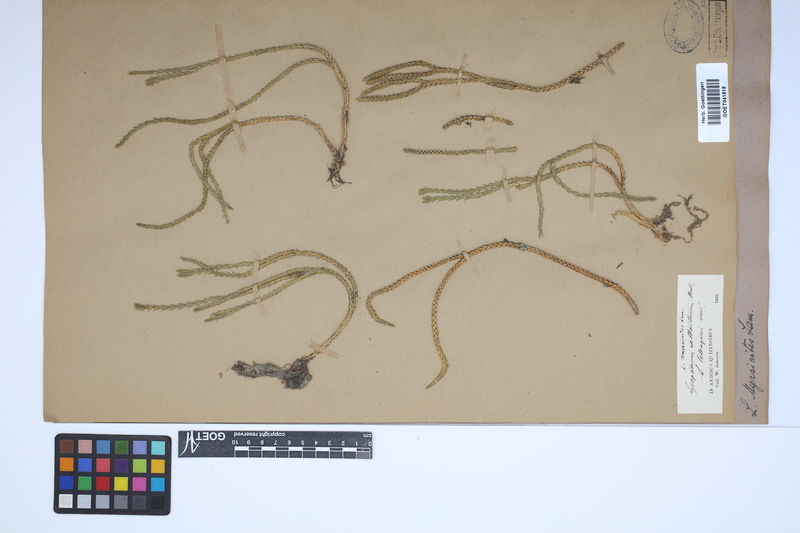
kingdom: Plantae
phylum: Tracheophyta
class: Lycopodiopsida
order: Lycopodiales
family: Lycopodiaceae
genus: Phlegmariurus
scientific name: Phlegmariurus myrsinites
